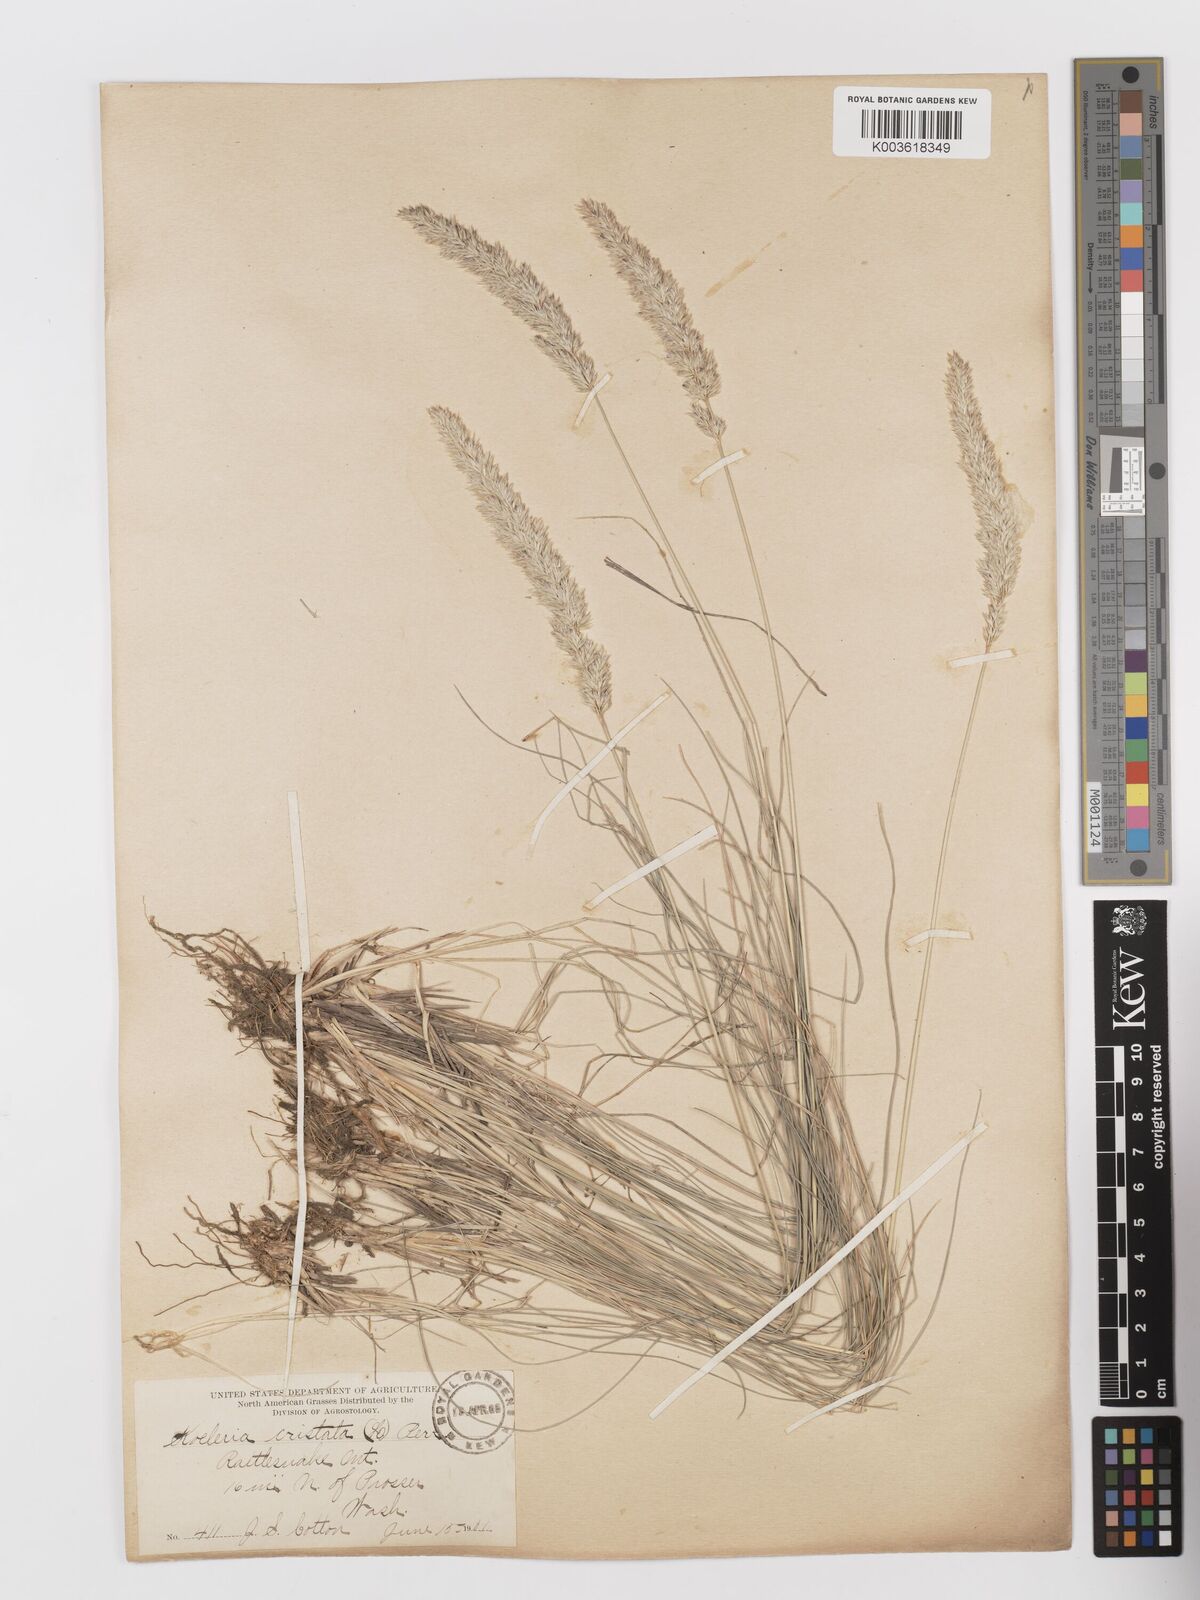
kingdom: Plantae
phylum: Tracheophyta
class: Liliopsida
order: Poales
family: Poaceae
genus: Koeleria
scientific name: Koeleria
